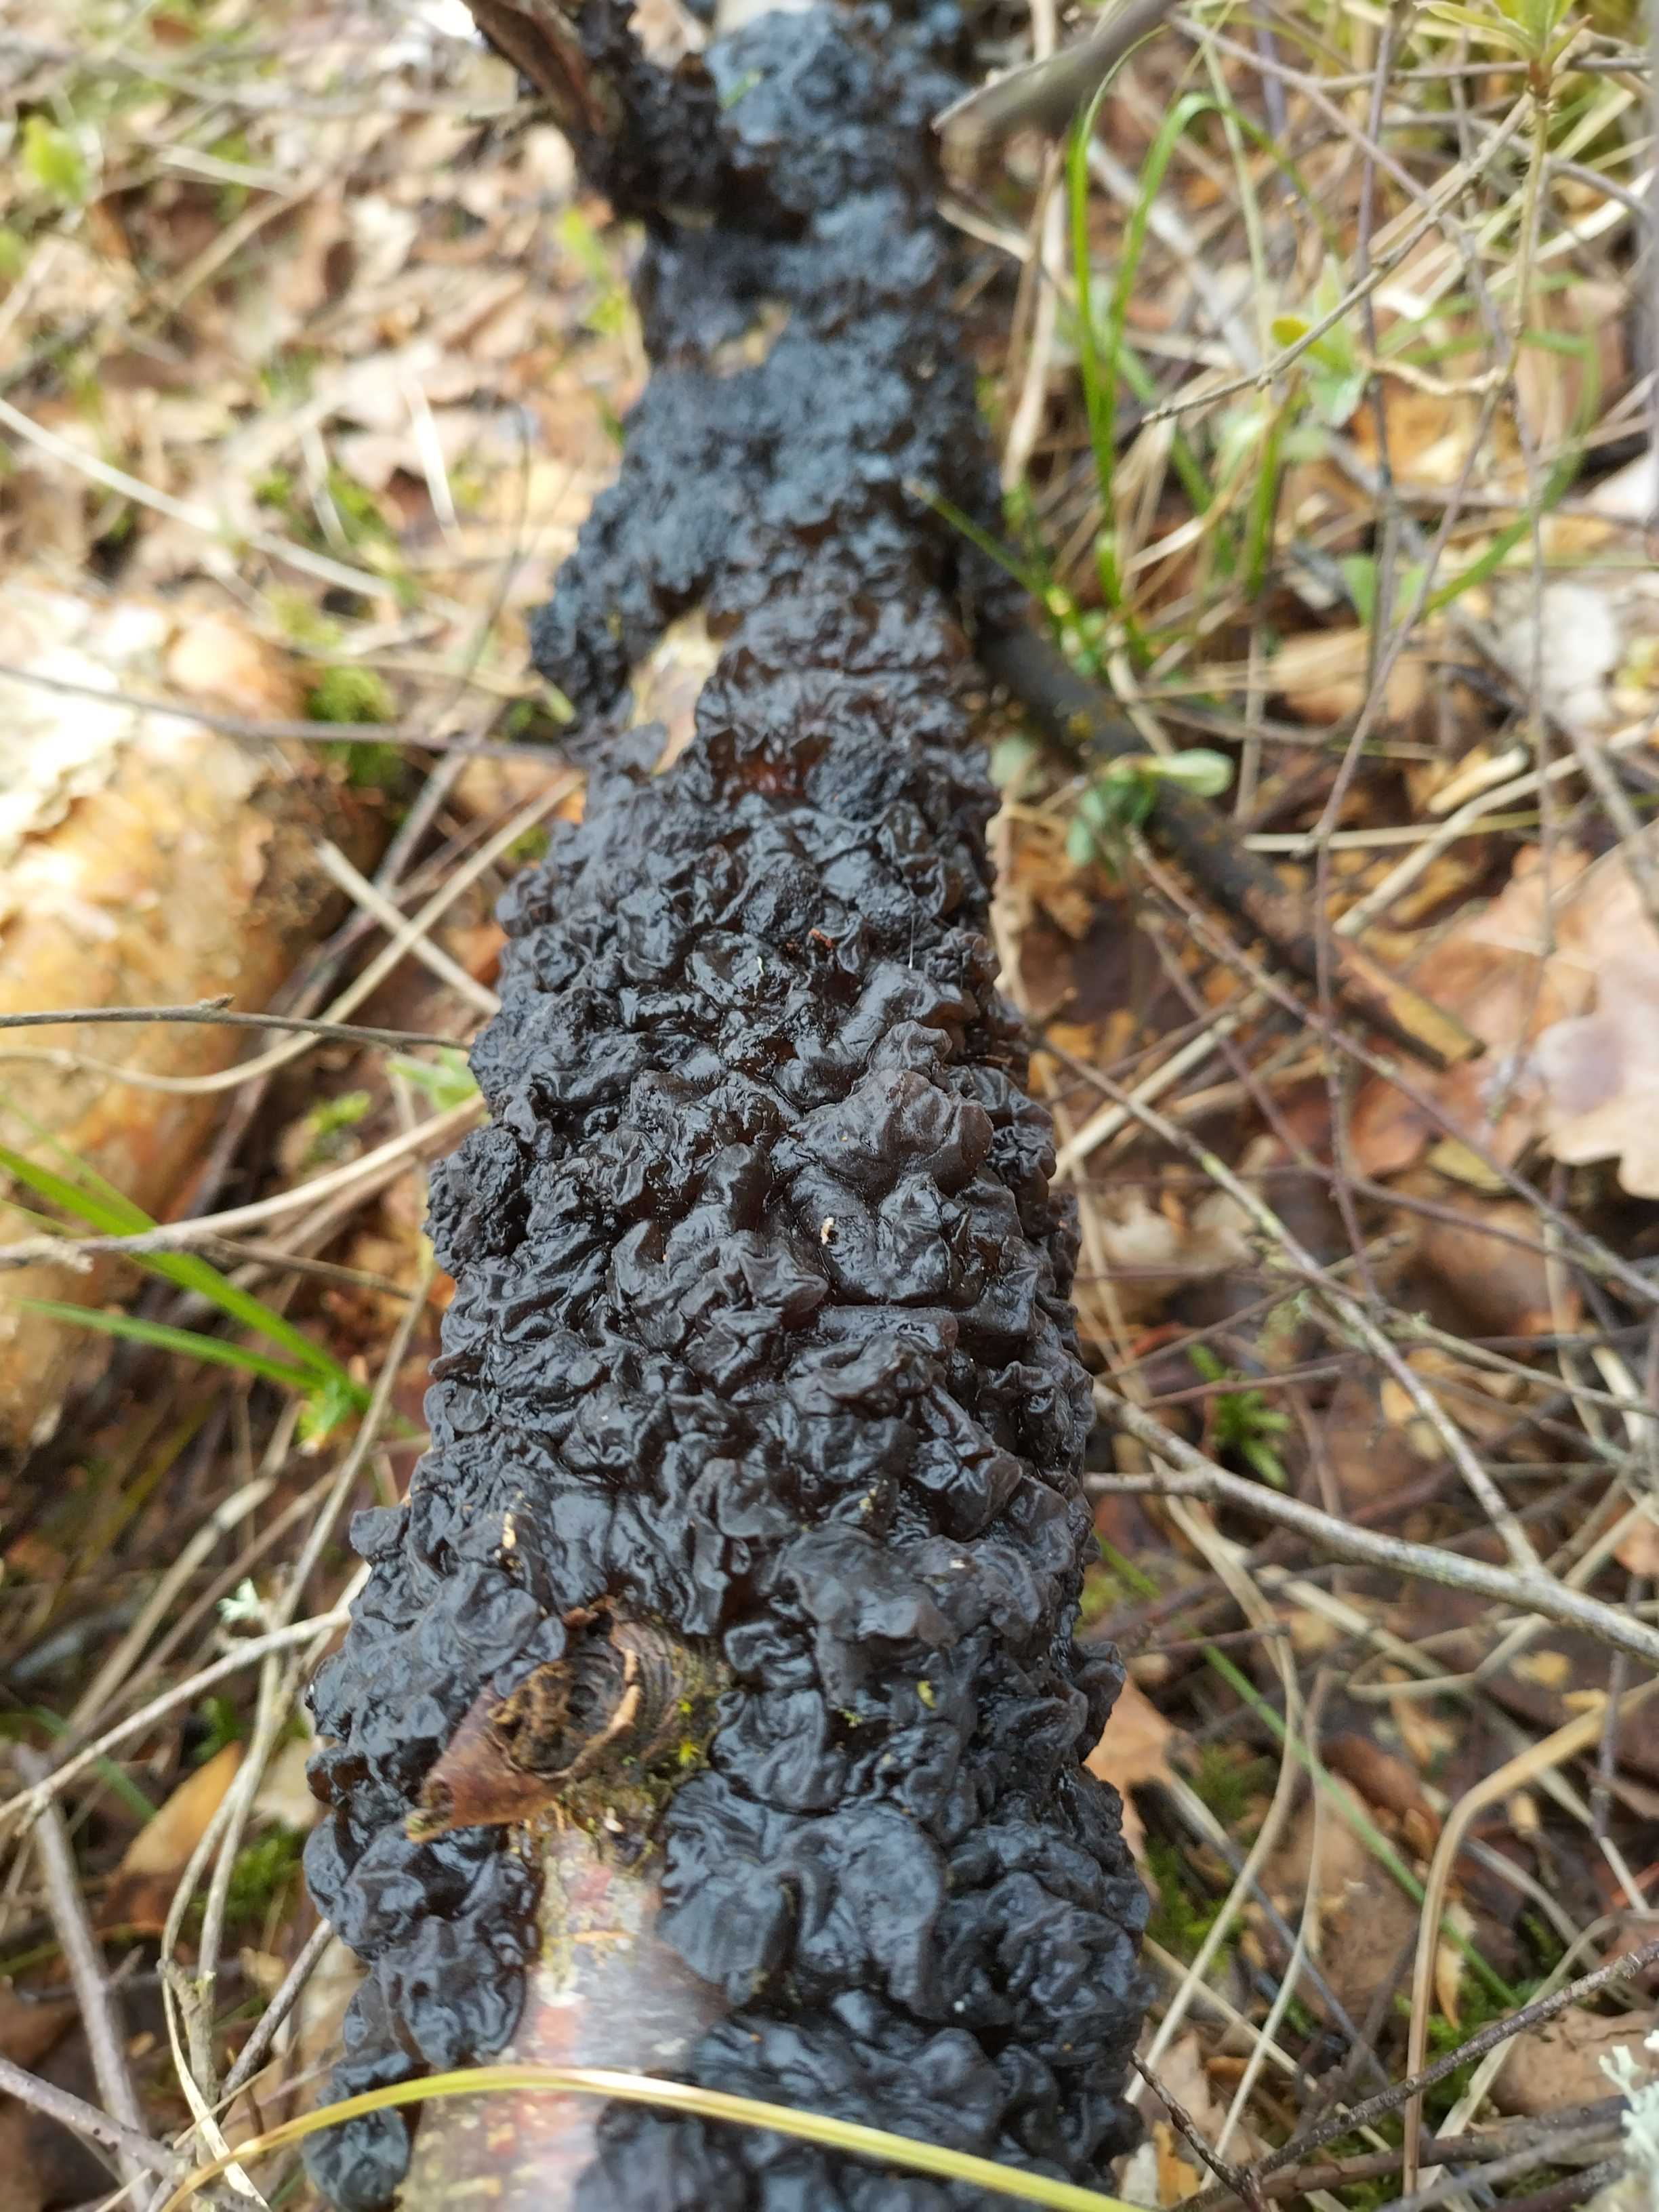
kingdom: Fungi
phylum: Basidiomycota
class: Agaricomycetes
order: Auriculariales
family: Auriculariaceae
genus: Exidia
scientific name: Exidia nigricans
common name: almindelig bævretop
